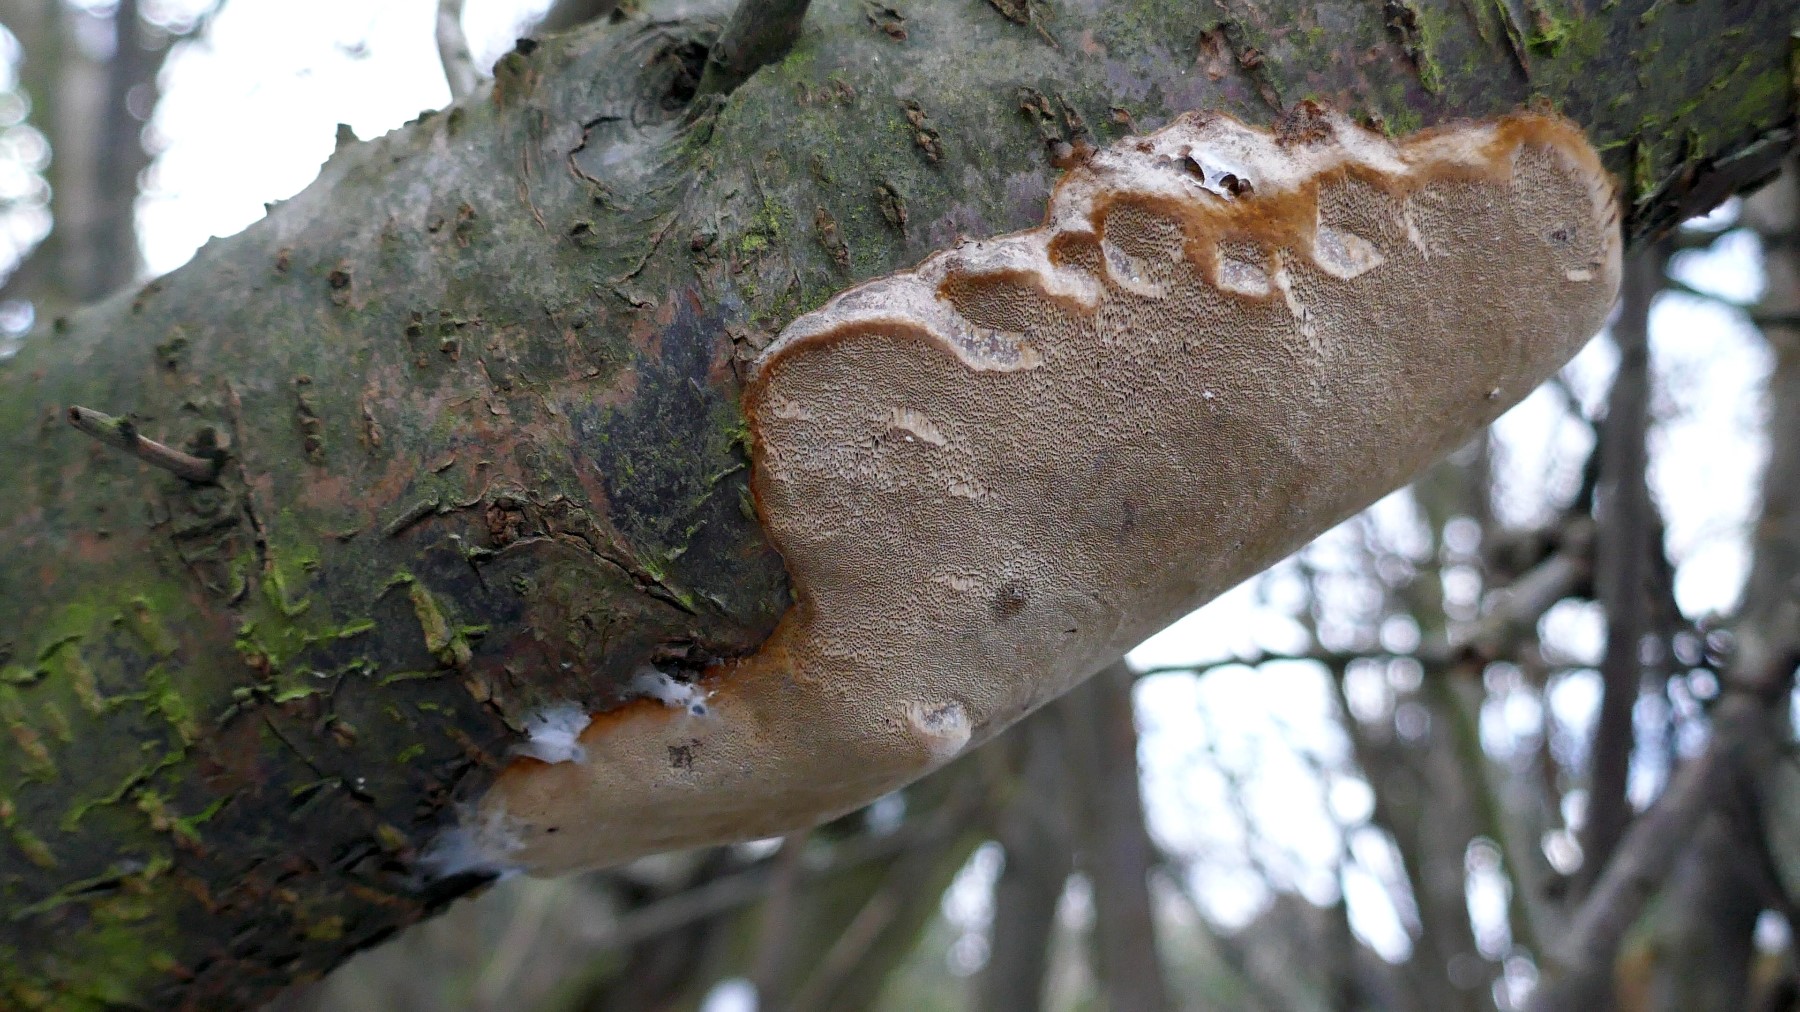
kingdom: Fungi
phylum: Basidiomycota
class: Agaricomycetes
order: Hymenochaetales
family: Hymenochaetaceae
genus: Phellinus
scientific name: Phellinus pomaceus
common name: blomme-ildporesvamp
